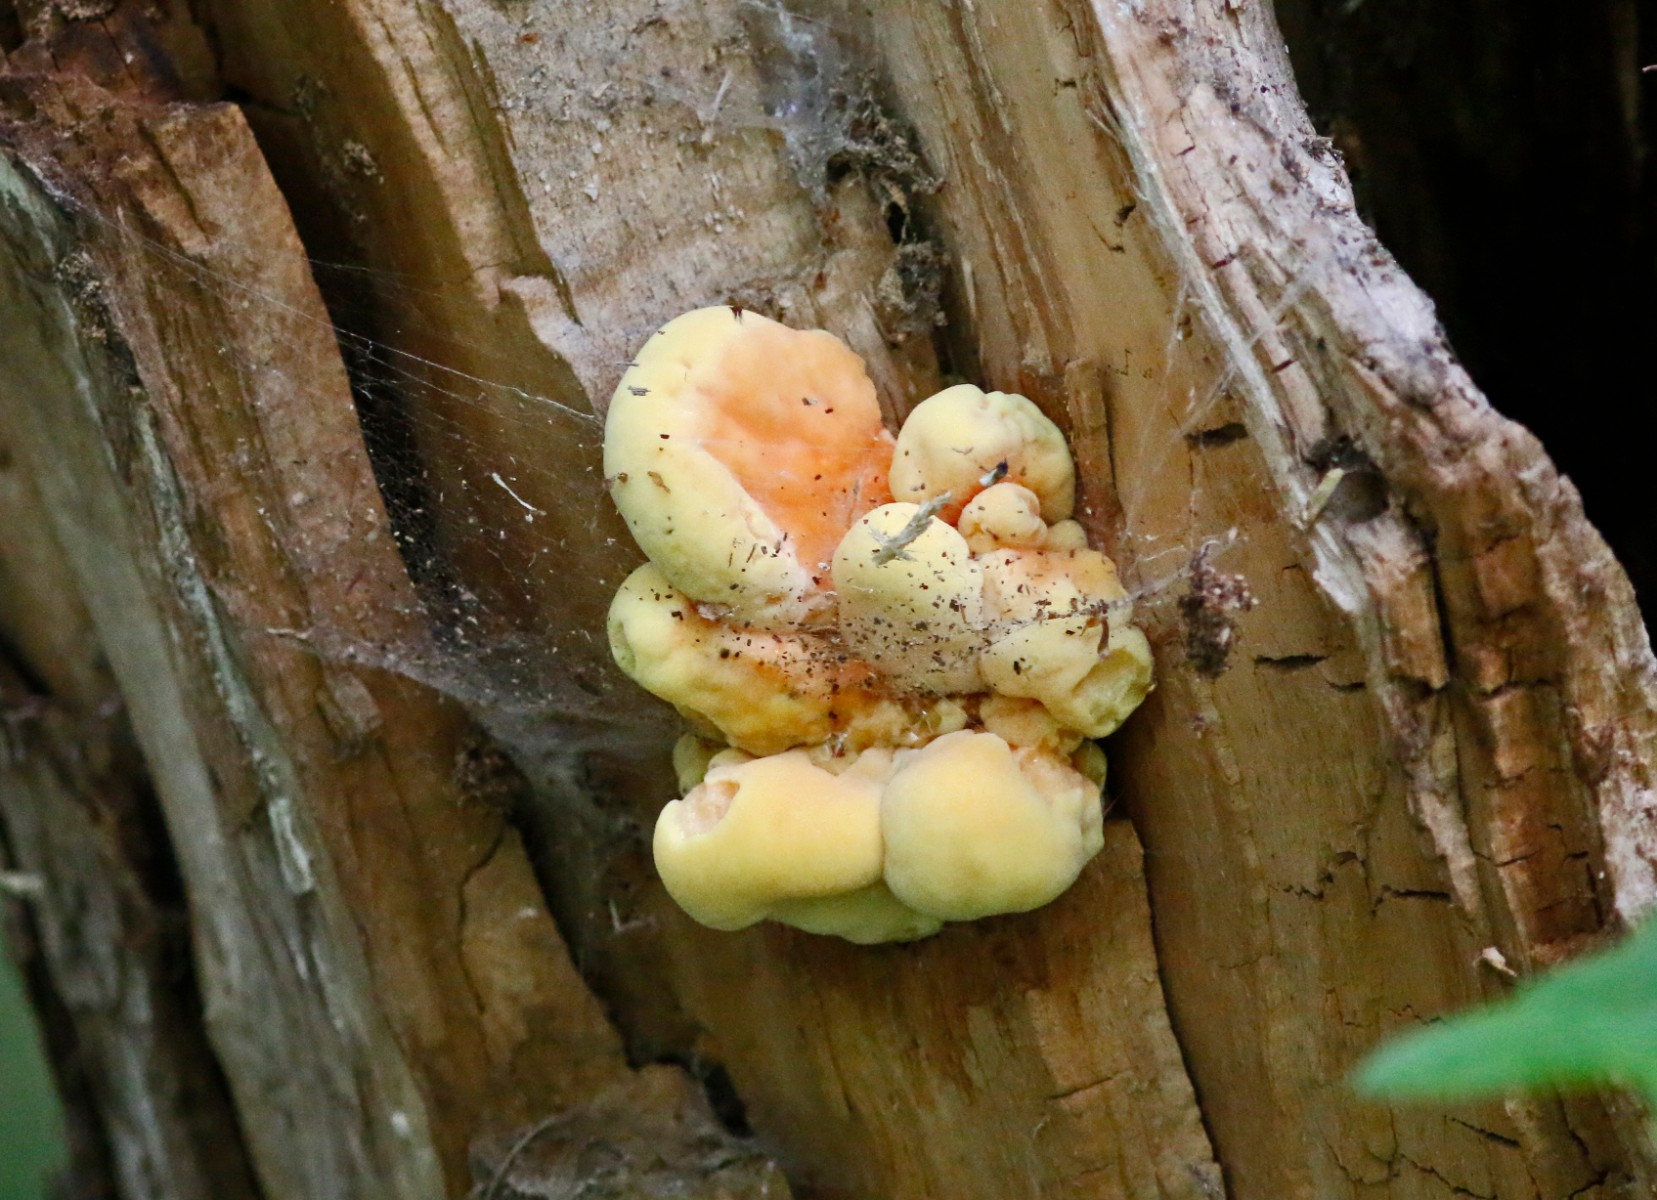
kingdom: Fungi
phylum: Basidiomycota
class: Agaricomycetes
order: Polyporales
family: Laetiporaceae
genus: Laetiporus
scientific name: Laetiporus sulphureus
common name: svovlporesvamp
